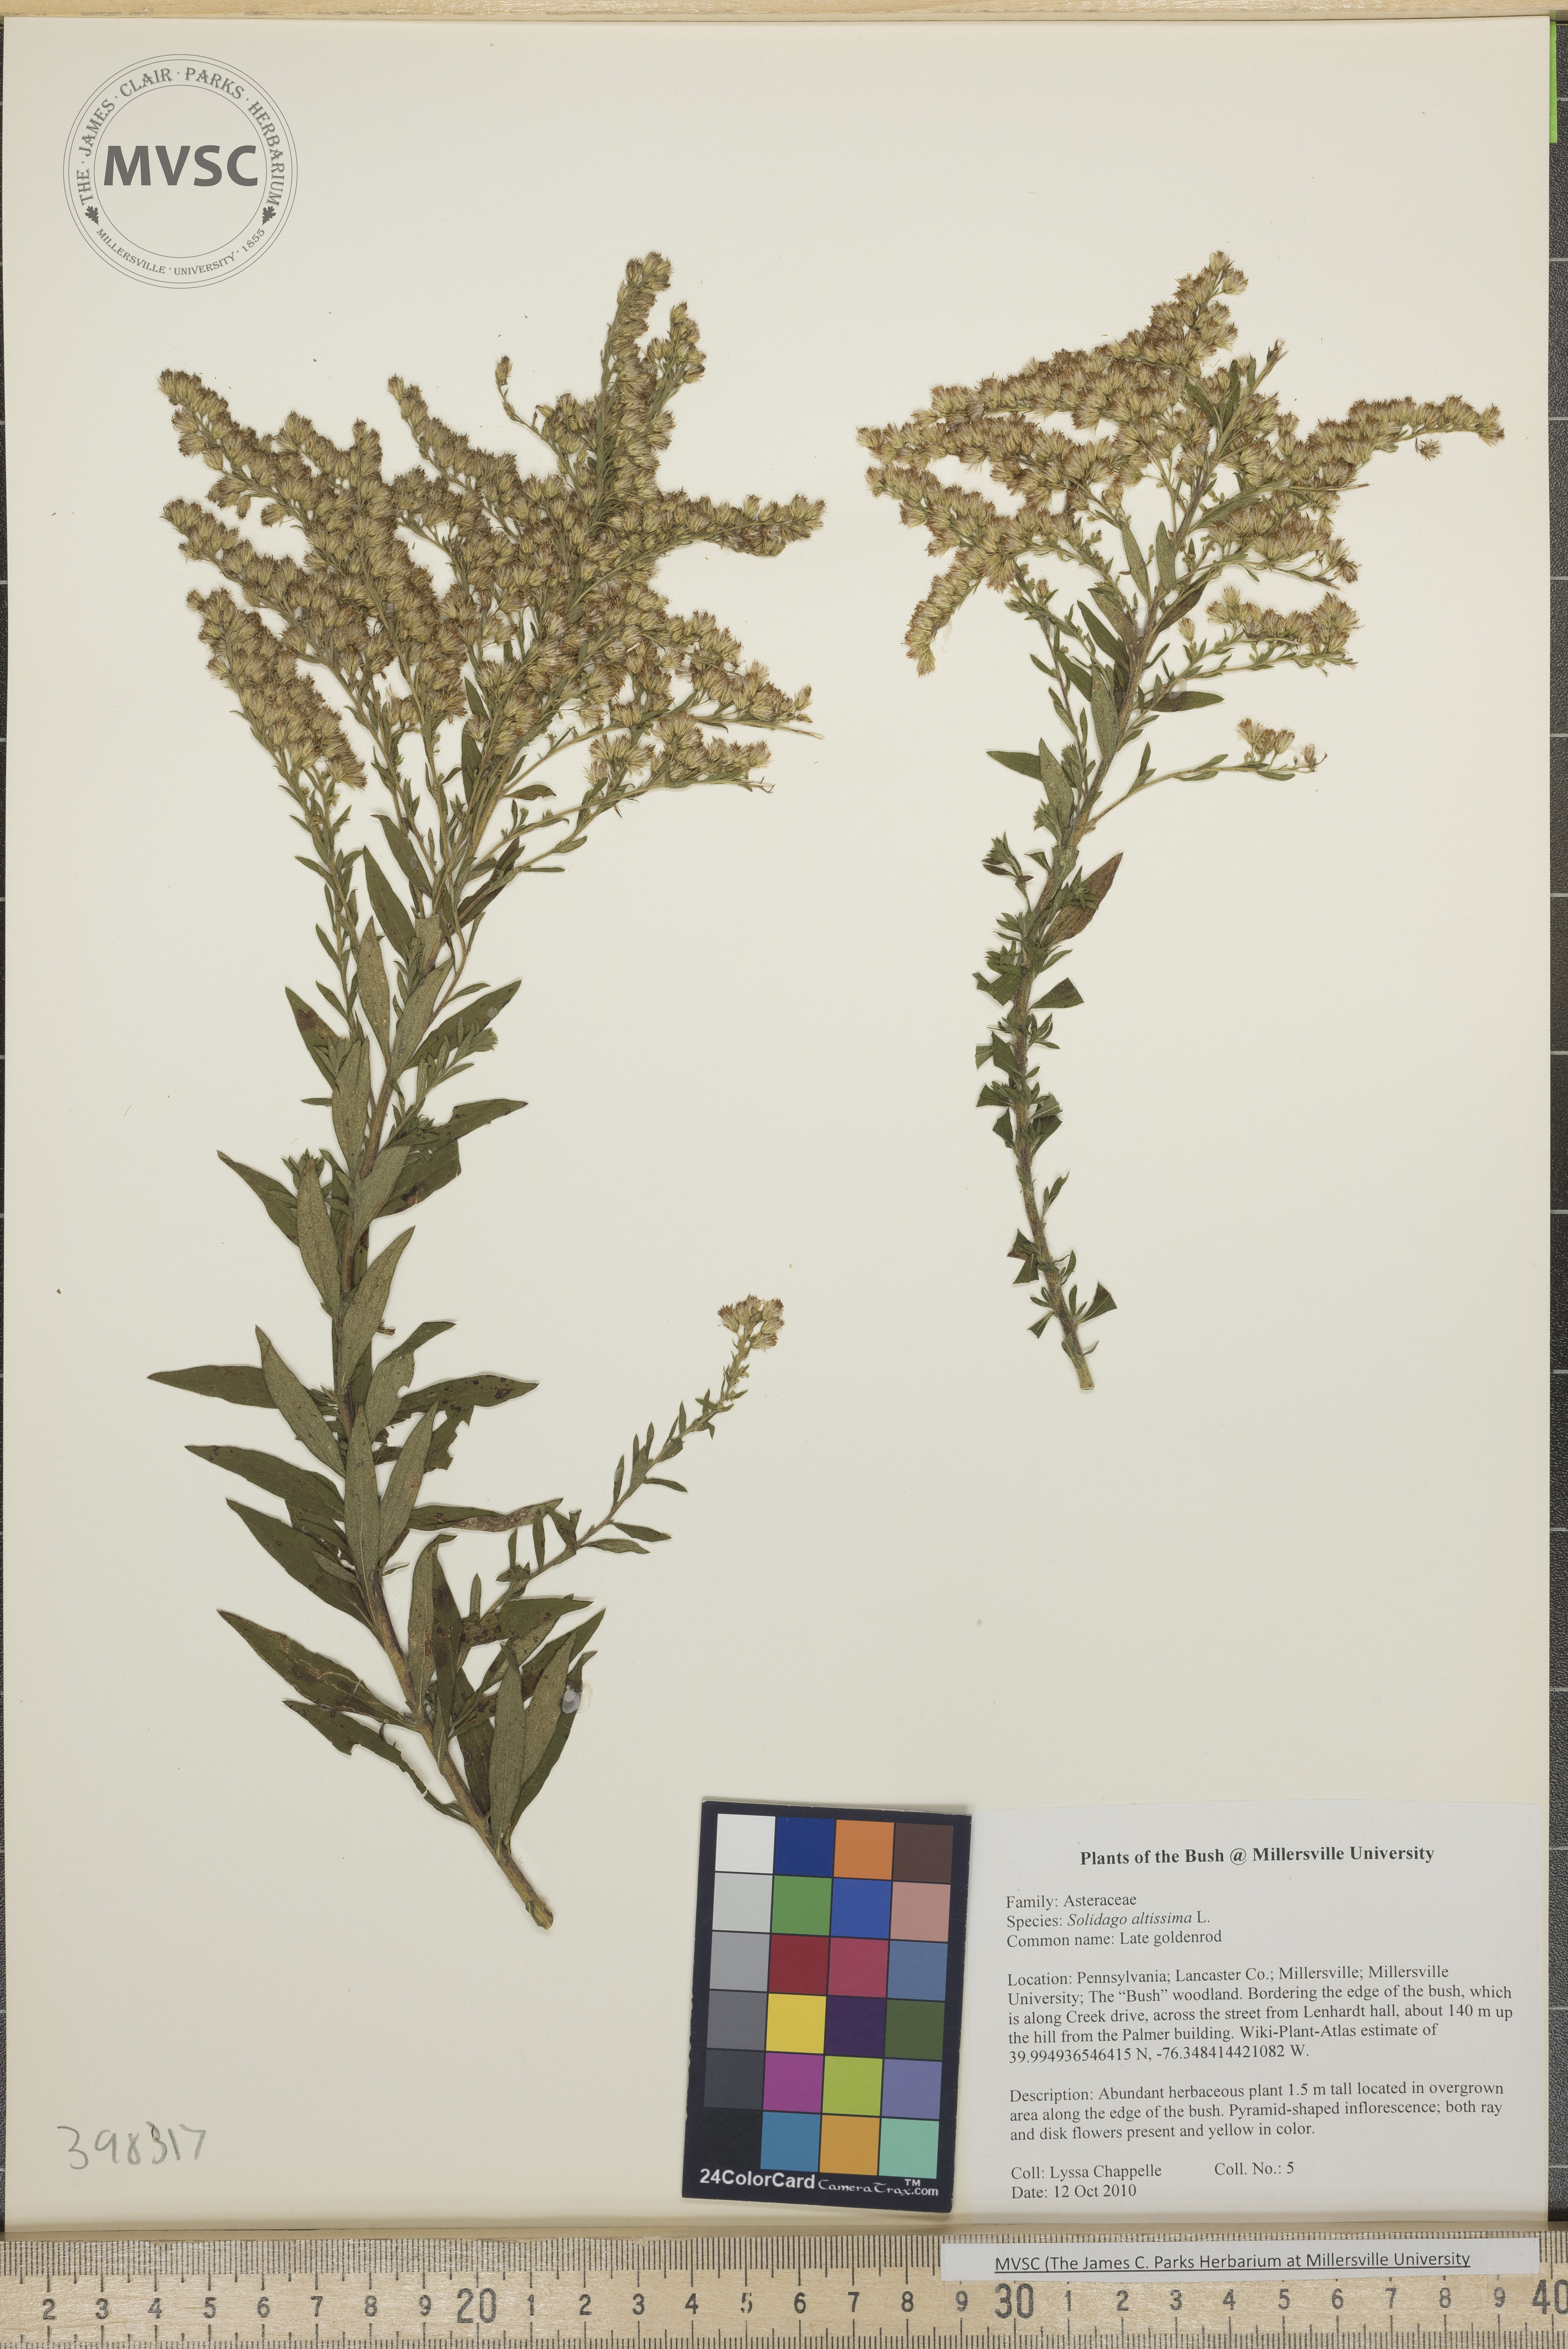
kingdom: Plantae
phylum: Tracheophyta
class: Magnoliopsida
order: Asterales
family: Asteraceae
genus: Solidago
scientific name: Solidago altissima
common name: Late goldenrod
